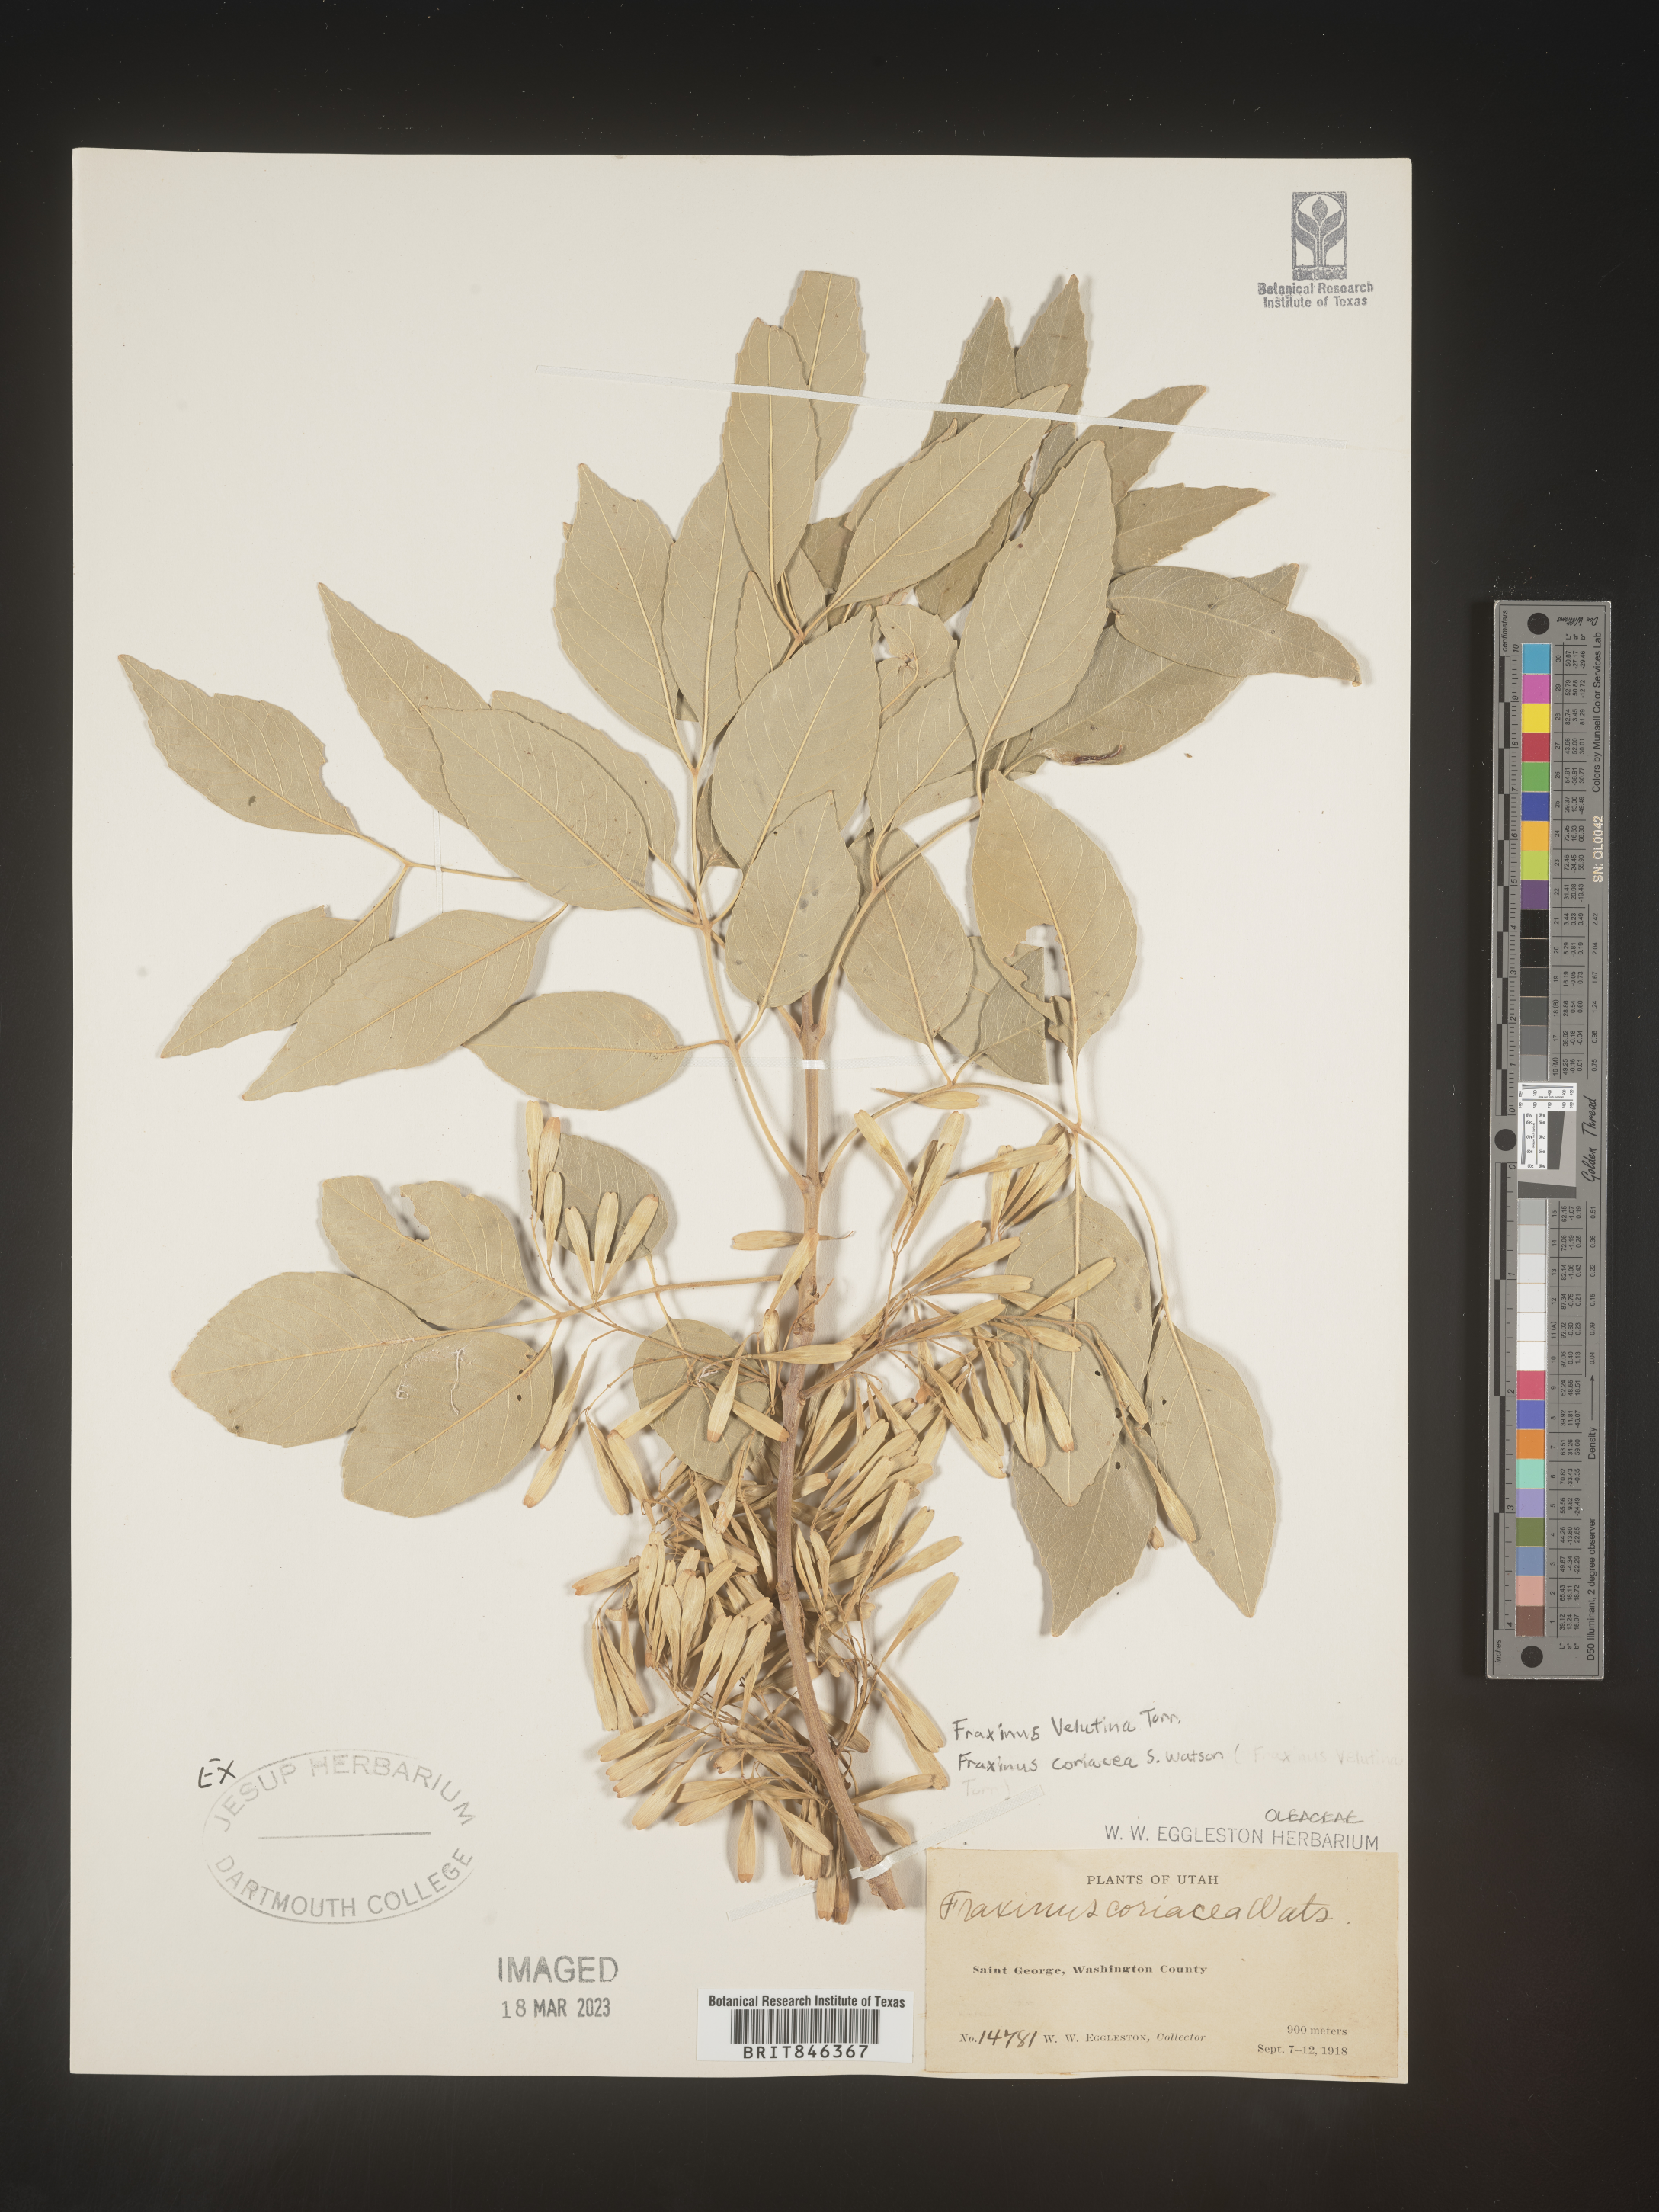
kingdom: Plantae
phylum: Tracheophyta
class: Magnoliopsida
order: Lamiales
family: Oleaceae
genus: Fraxinus
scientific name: Fraxinus velutina
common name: Arizon ash
